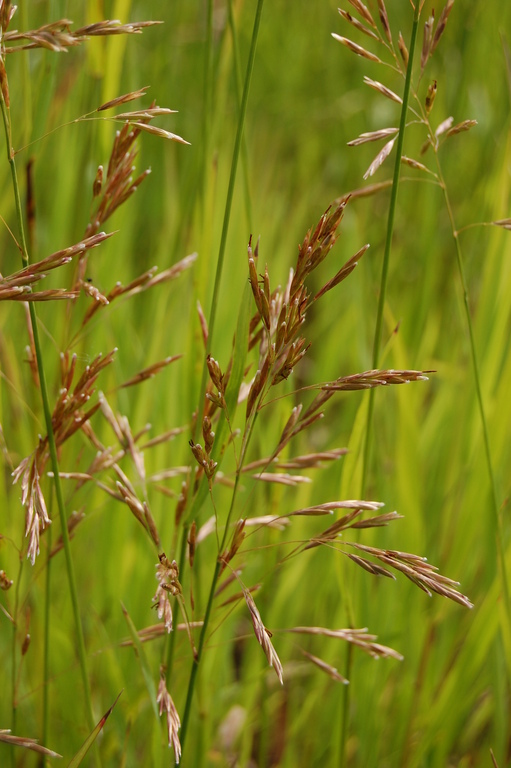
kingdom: Plantae
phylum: Tracheophyta
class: Liliopsida
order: Poales
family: Poaceae
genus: Bromus
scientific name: Bromus inermis
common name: Smooth brome
